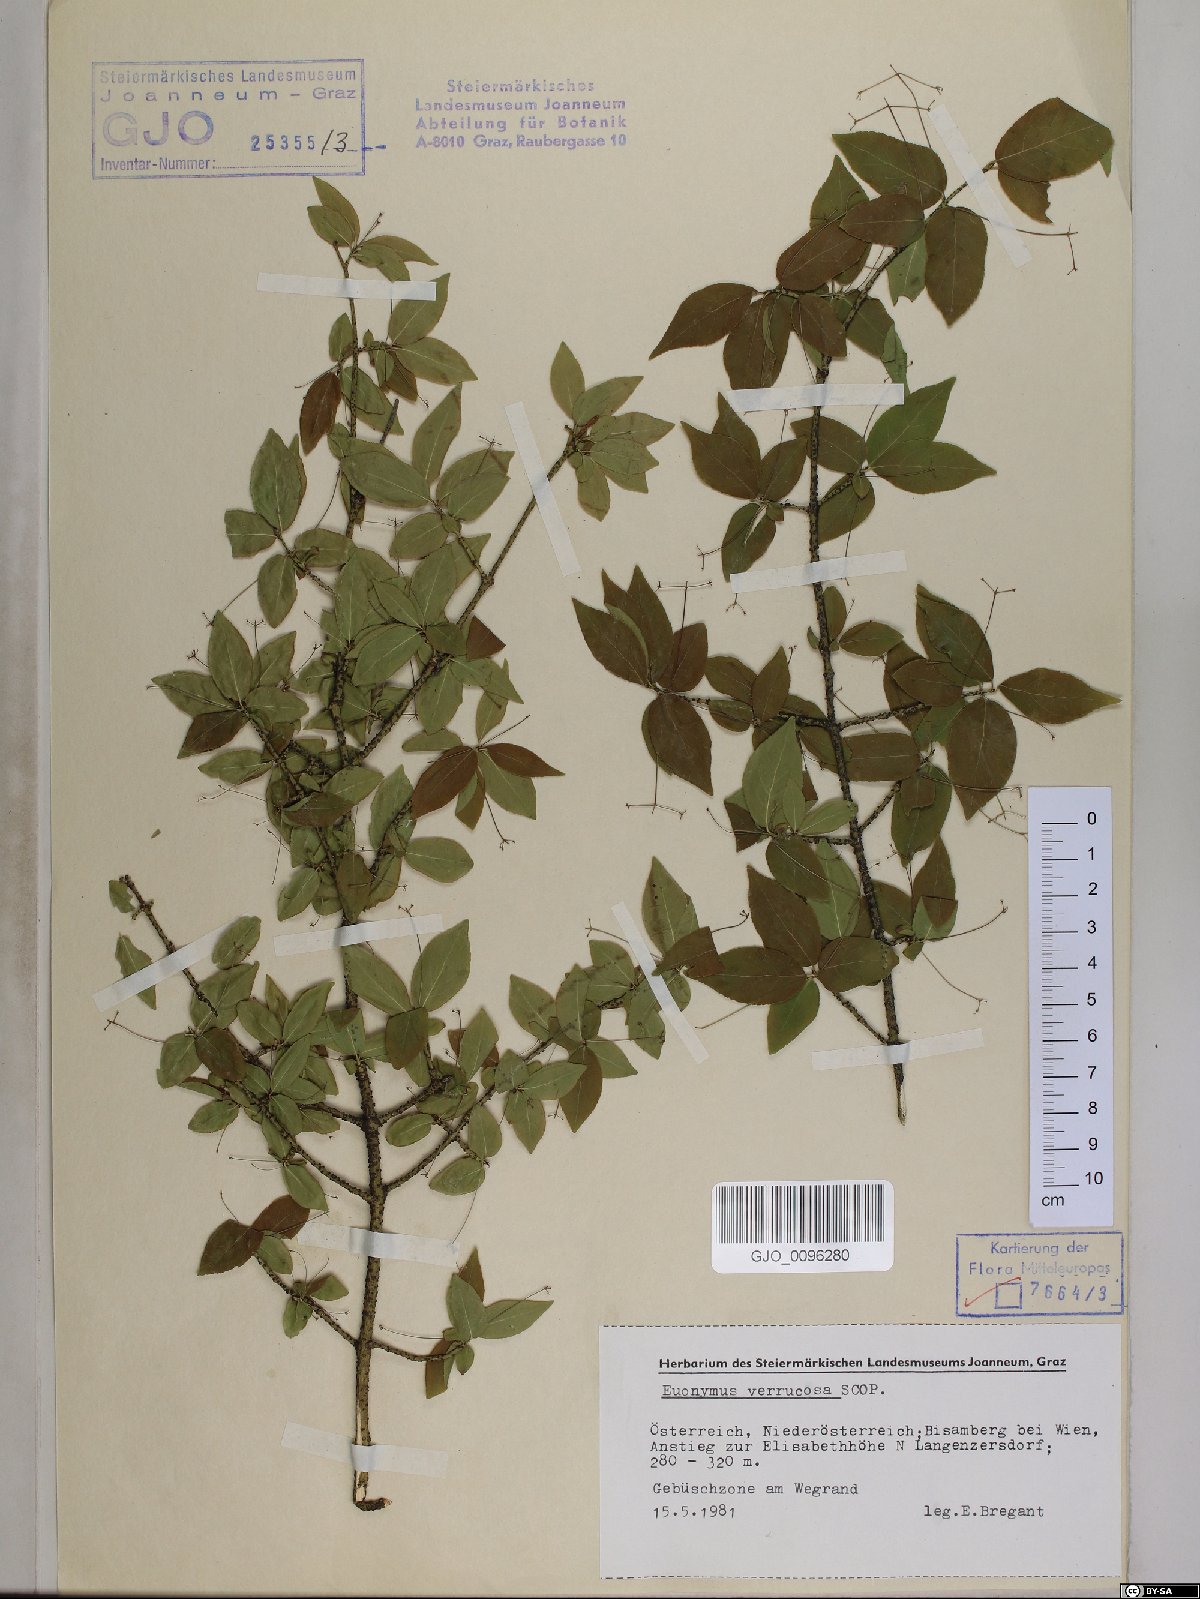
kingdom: Plantae
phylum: Tracheophyta
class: Magnoliopsida
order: Celastrales
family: Celastraceae
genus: Euonymus
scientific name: Euonymus verrucosus
